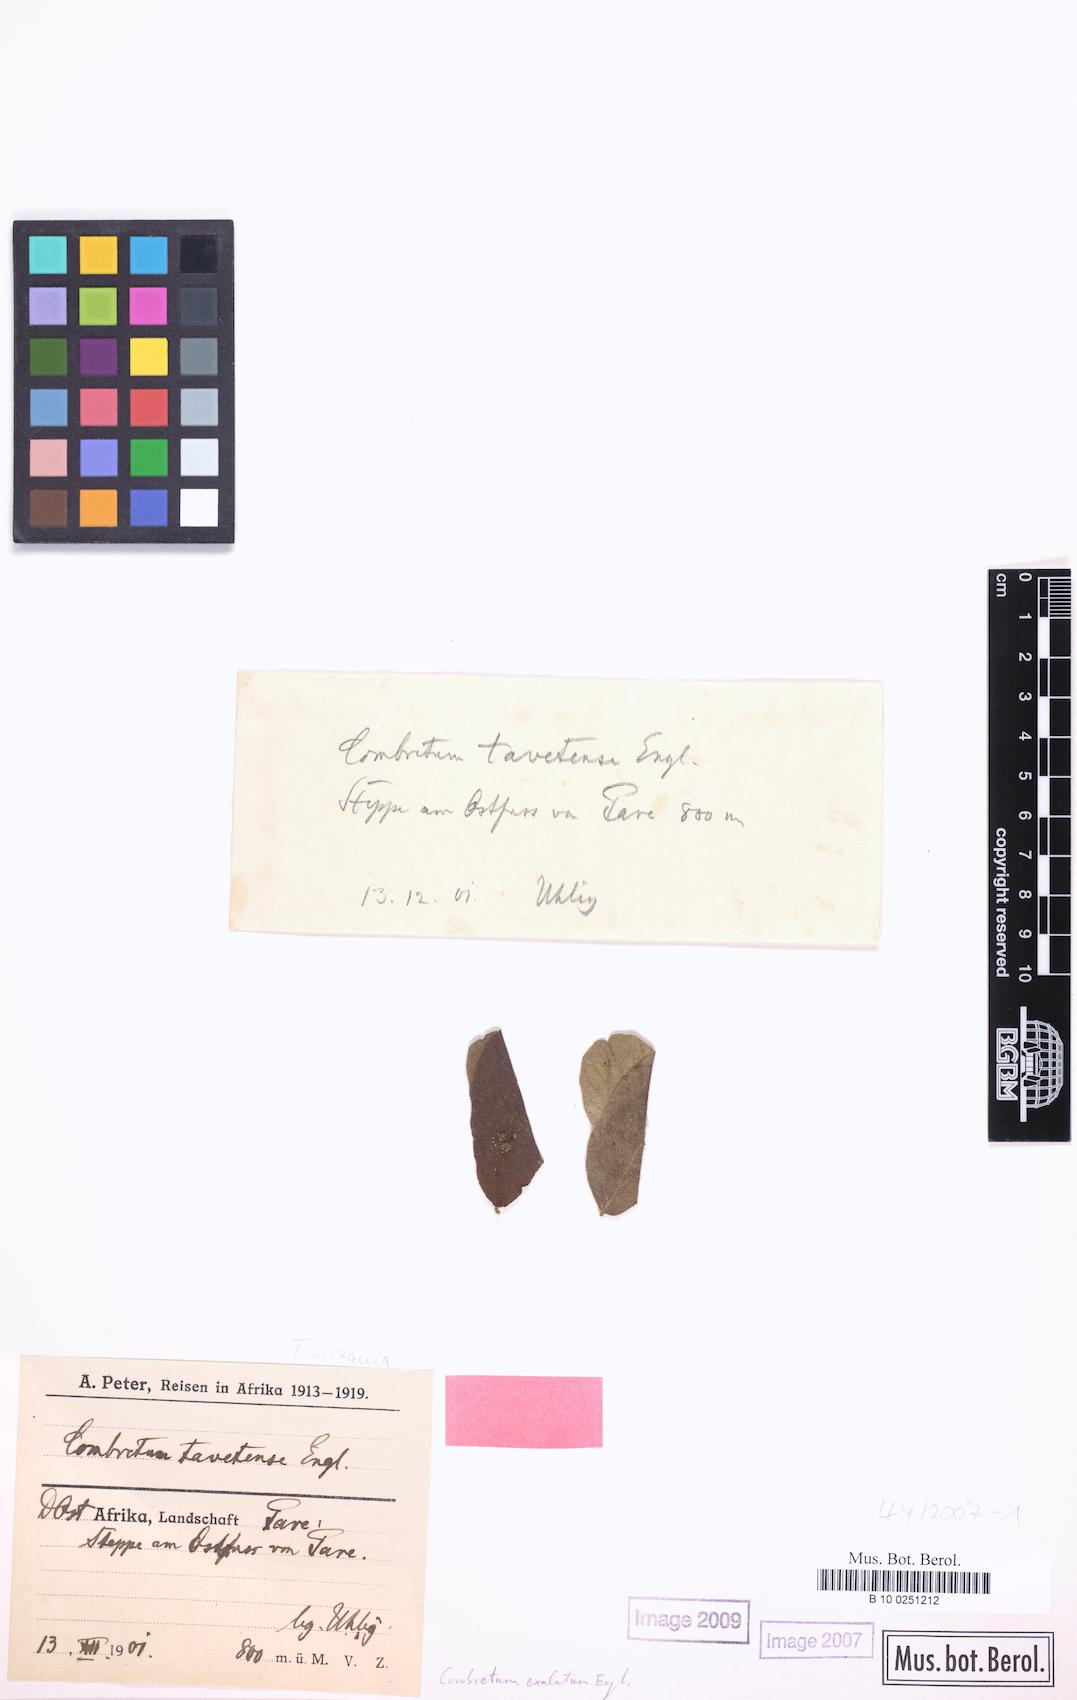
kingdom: Plantae
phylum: Tracheophyta
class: Magnoliopsida
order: Myrtales
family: Combretaceae
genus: Combretum
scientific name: Combretum exalatum
